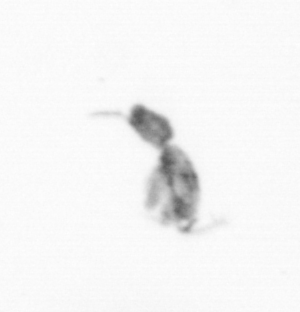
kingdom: Animalia
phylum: Arthropoda
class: Copepoda
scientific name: Copepoda
